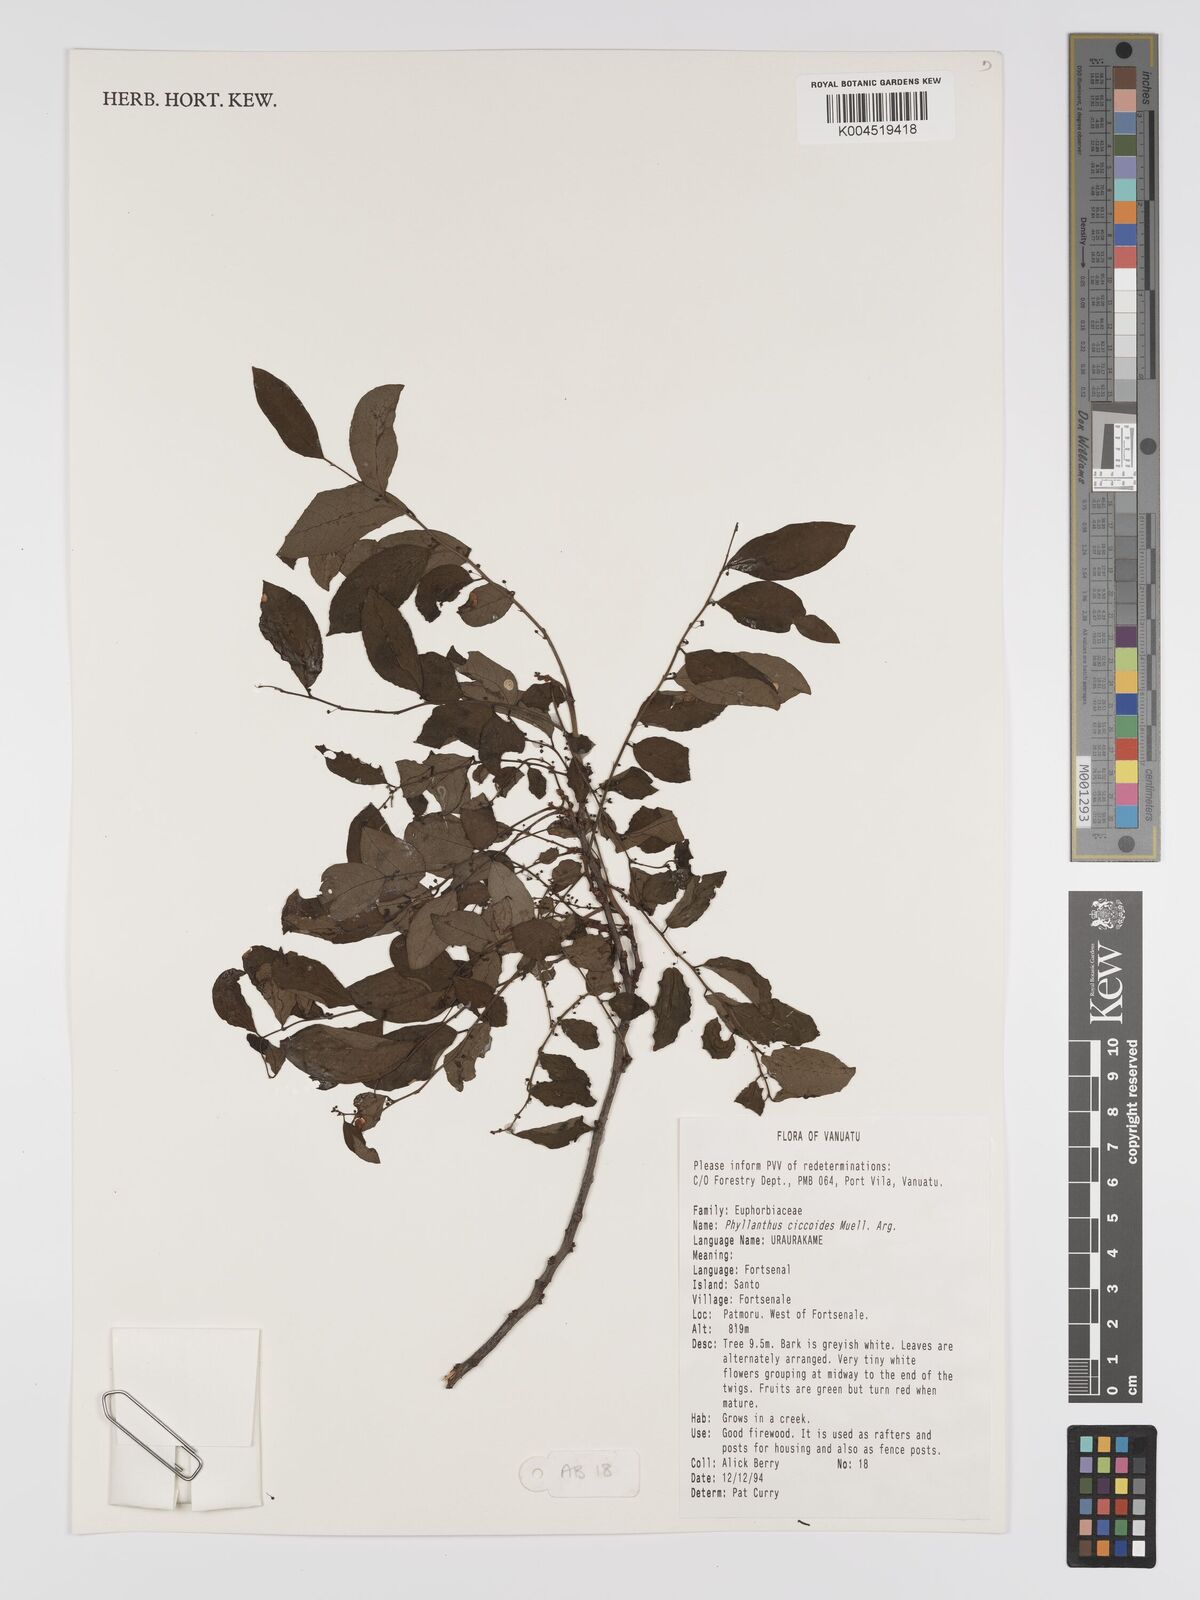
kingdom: Plantae
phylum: Tracheophyta
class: Magnoliopsida
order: Malpighiales
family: Phyllanthaceae
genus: Phyllanthus
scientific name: Phyllanthus ciccoides
